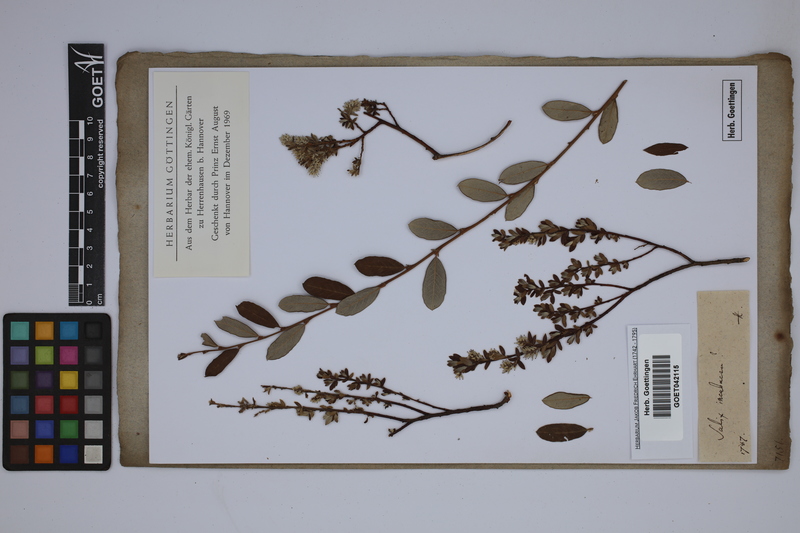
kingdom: Plantae
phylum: Tracheophyta
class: Magnoliopsida
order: Malpighiales
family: Salicaceae
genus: Salix
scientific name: Salix incubacea
